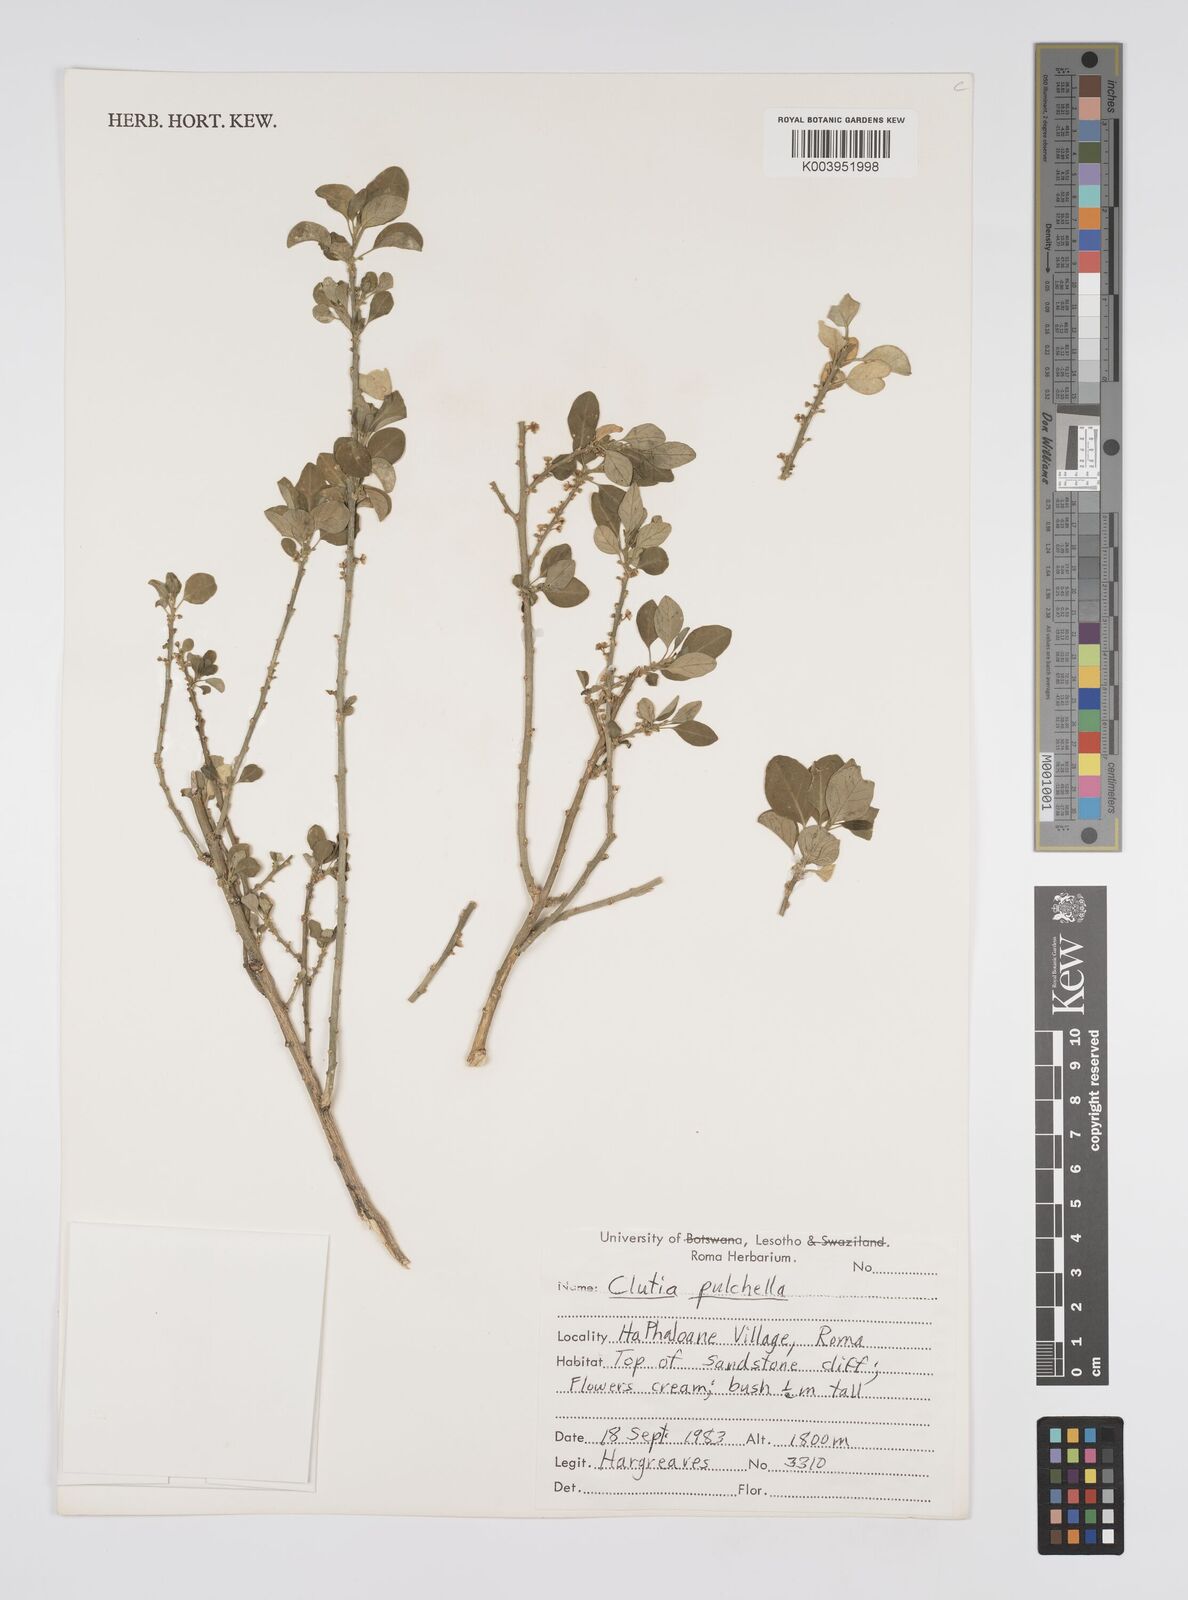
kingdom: Plantae
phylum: Tracheophyta
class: Magnoliopsida
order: Malpighiales
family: Peraceae
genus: Clutia
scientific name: Clutia pulchella
